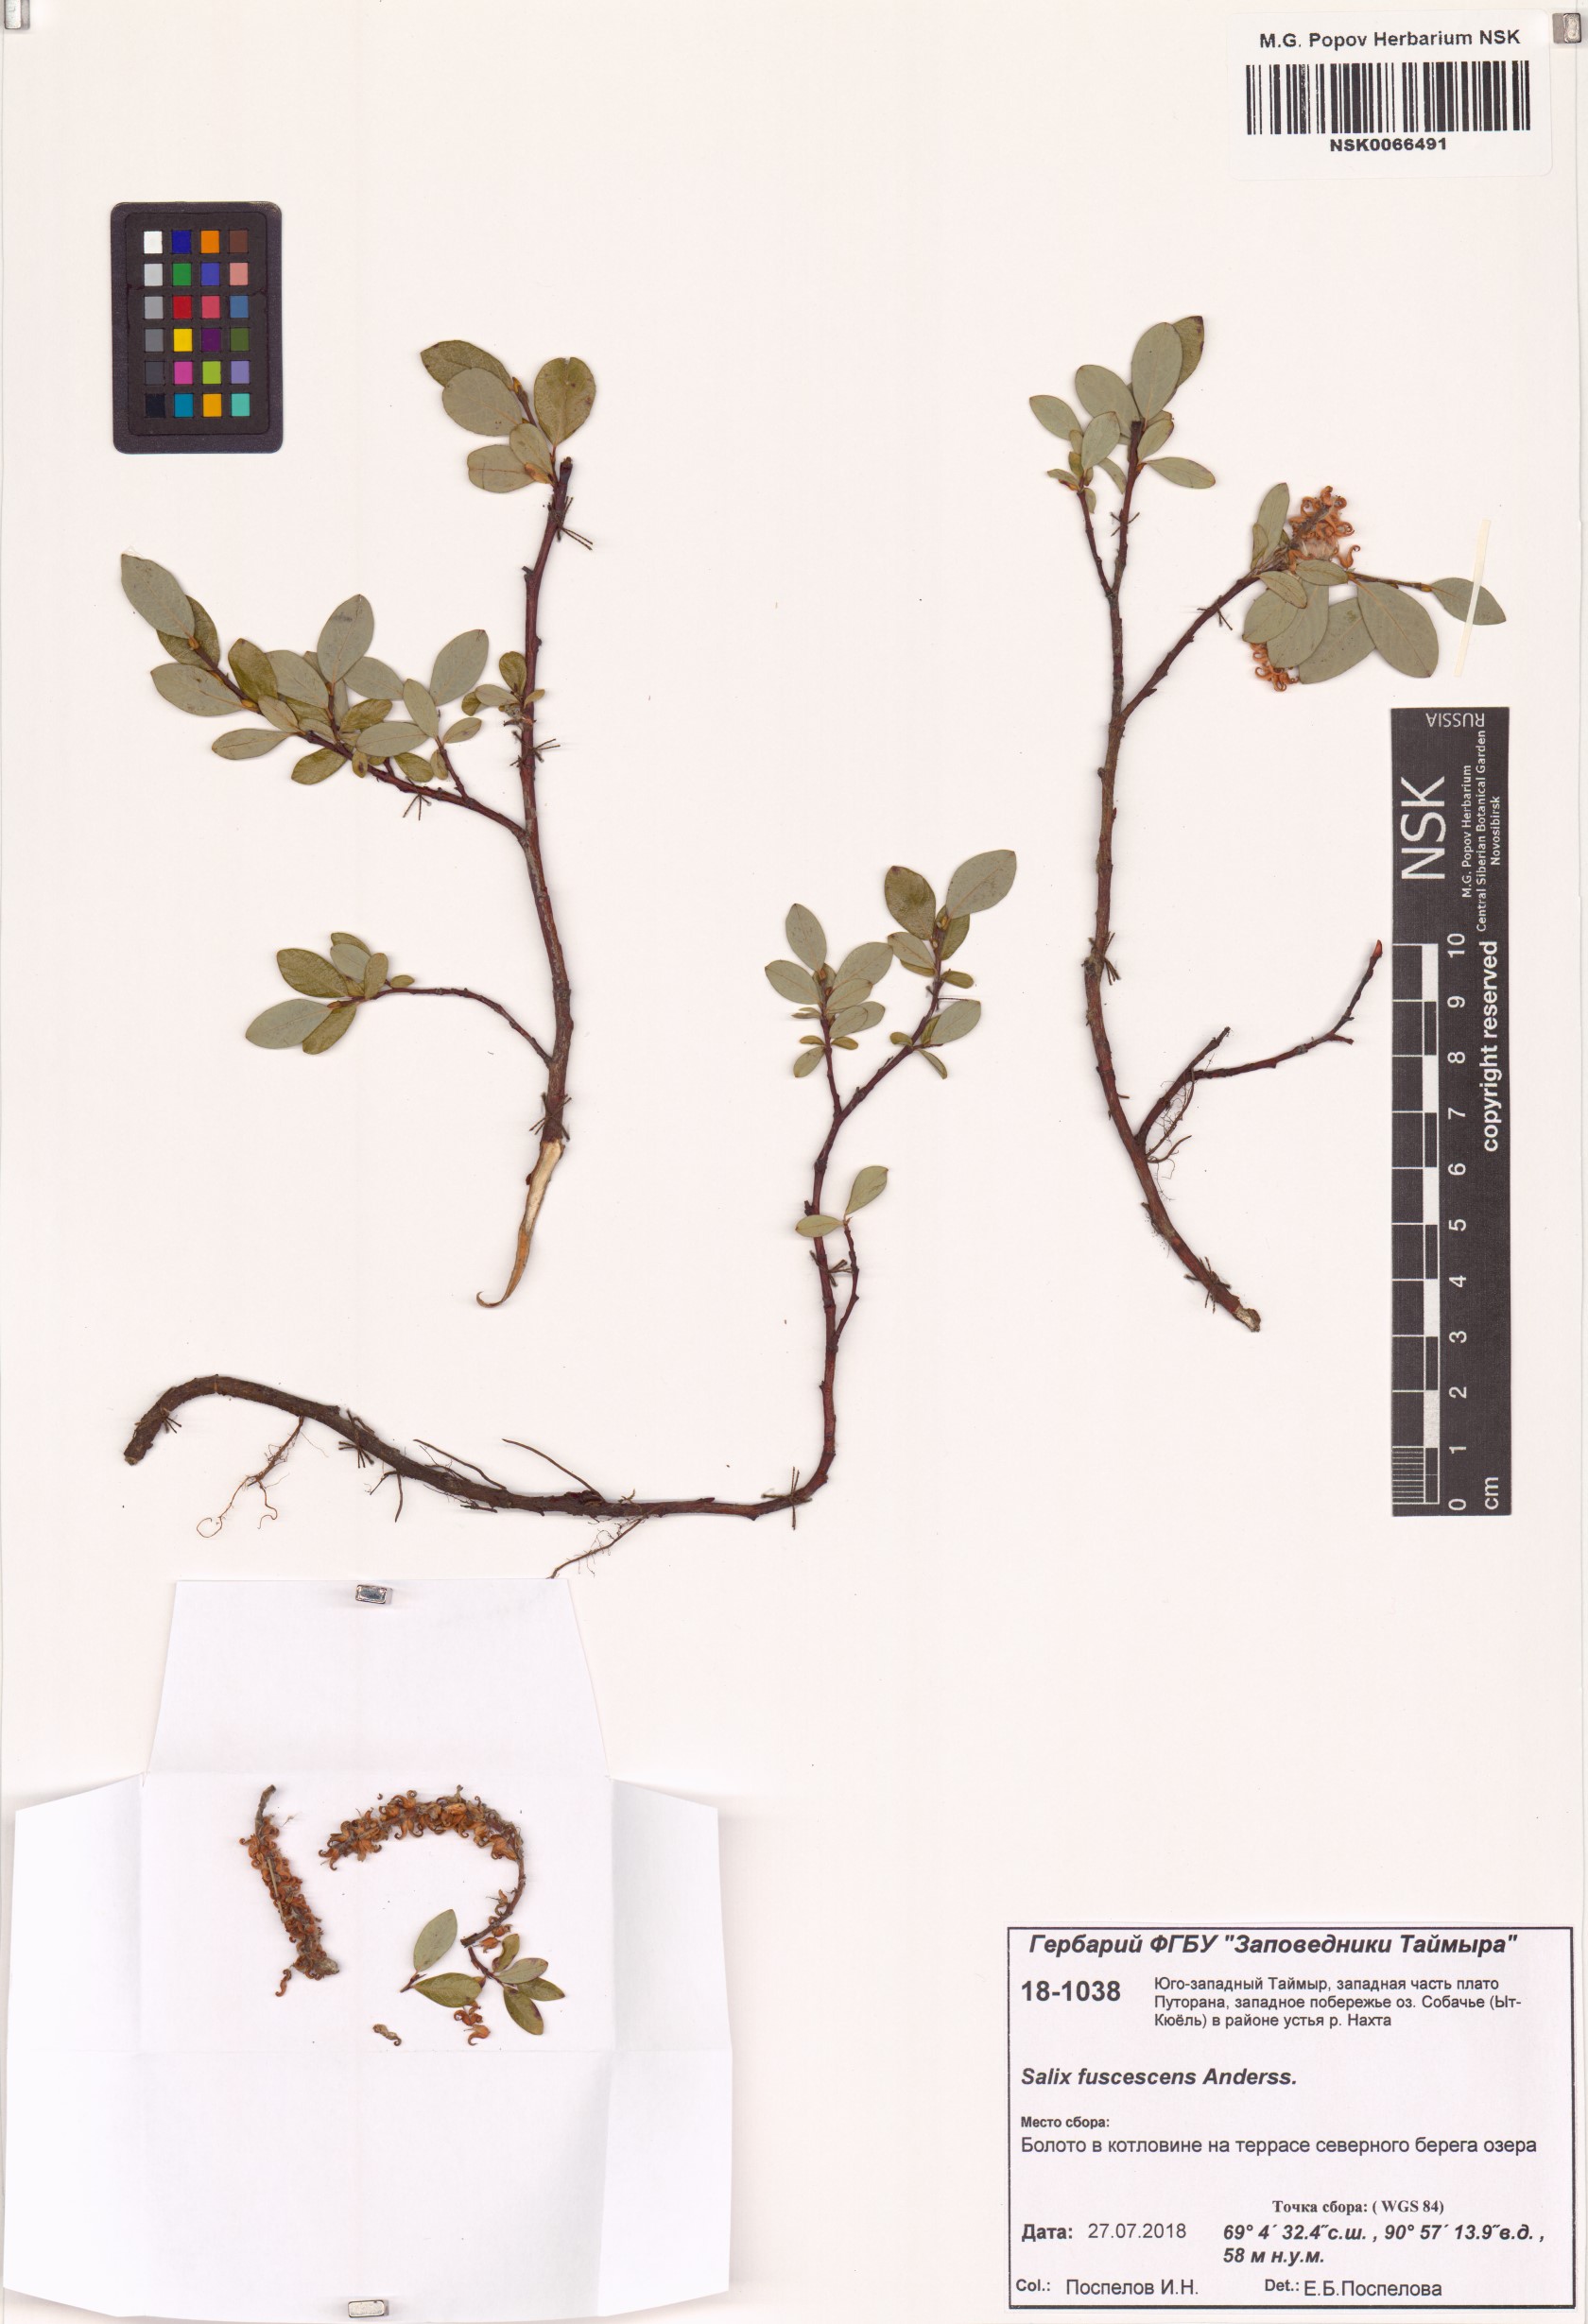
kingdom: Plantae
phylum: Tracheophyta
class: Magnoliopsida
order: Malpighiales
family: Salicaceae
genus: Salix
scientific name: Salix fuscescens
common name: Brownish willow
